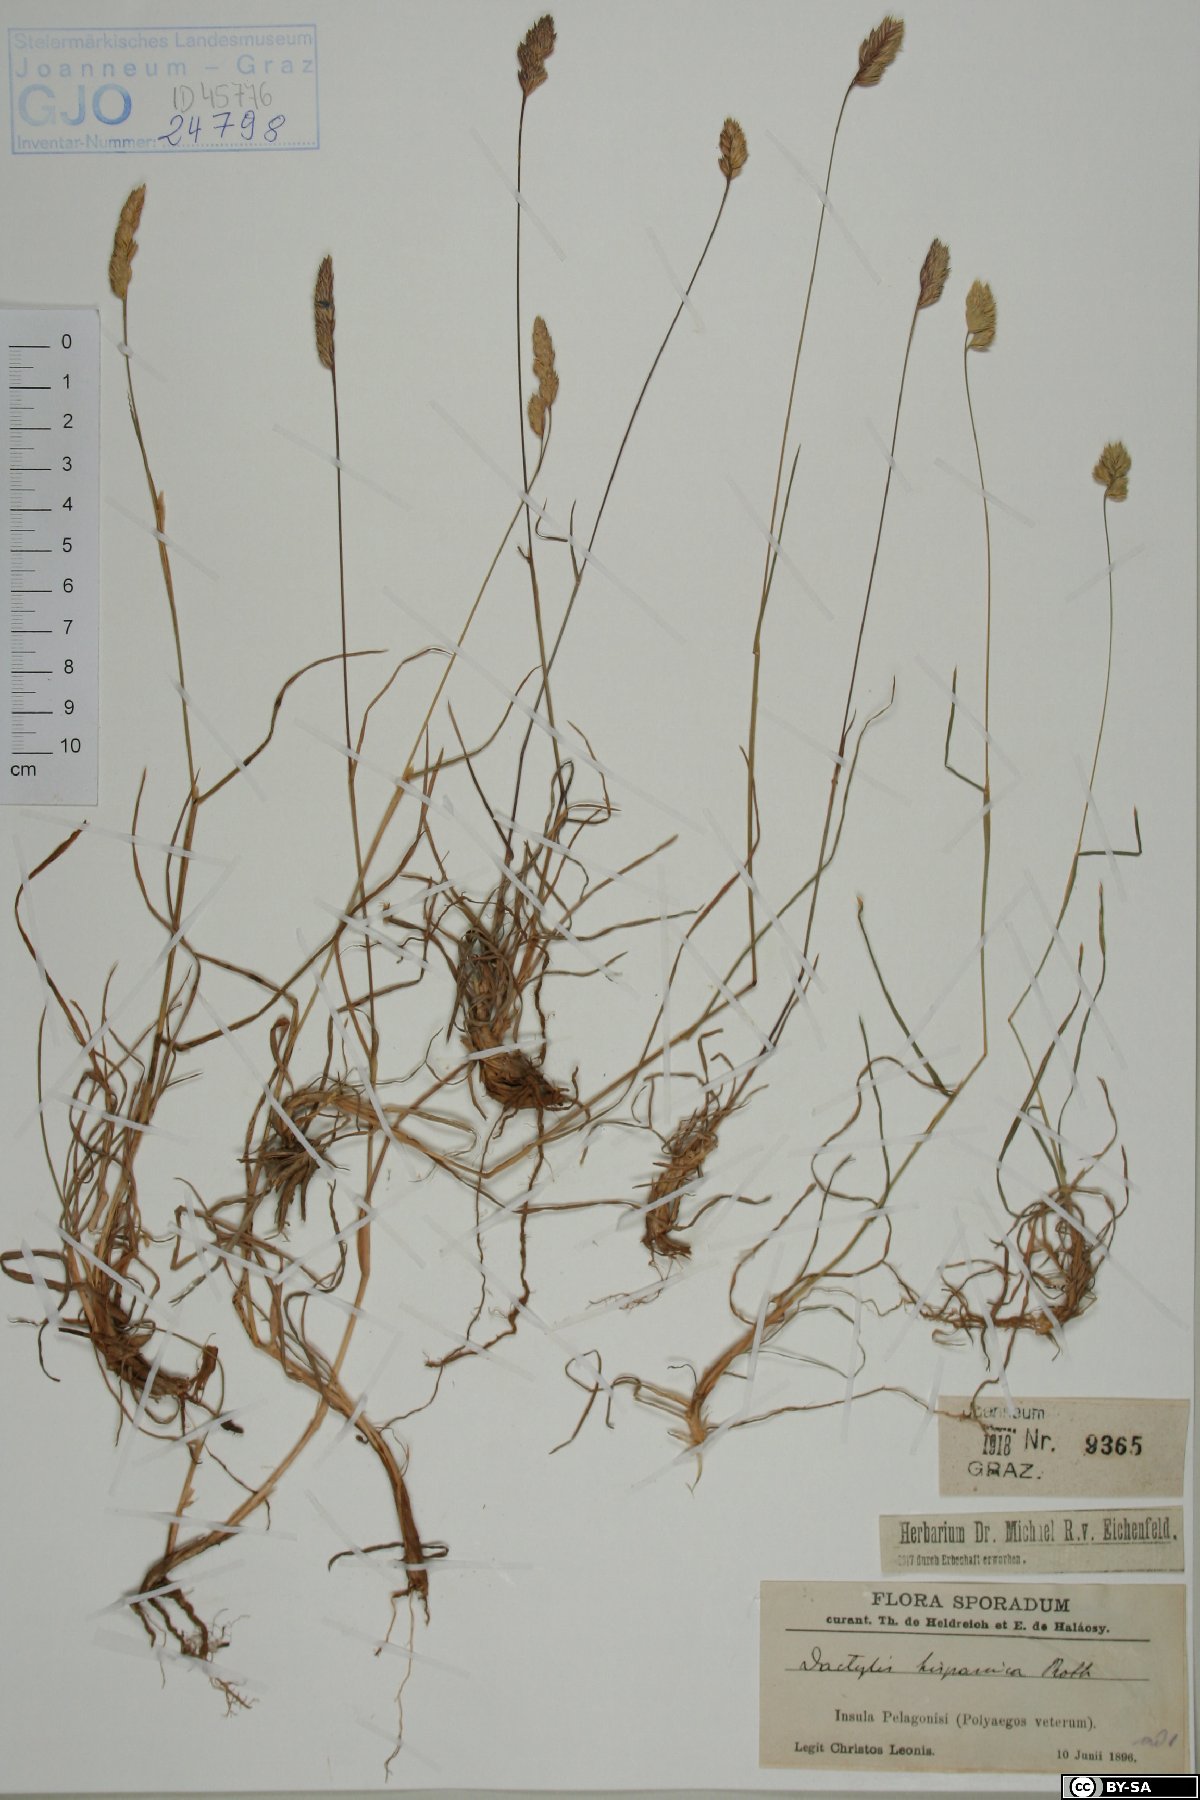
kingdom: Plantae
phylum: Tracheophyta
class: Liliopsida
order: Poales
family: Poaceae
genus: Dactylis
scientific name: Dactylis glomerata
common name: Orchardgrass
